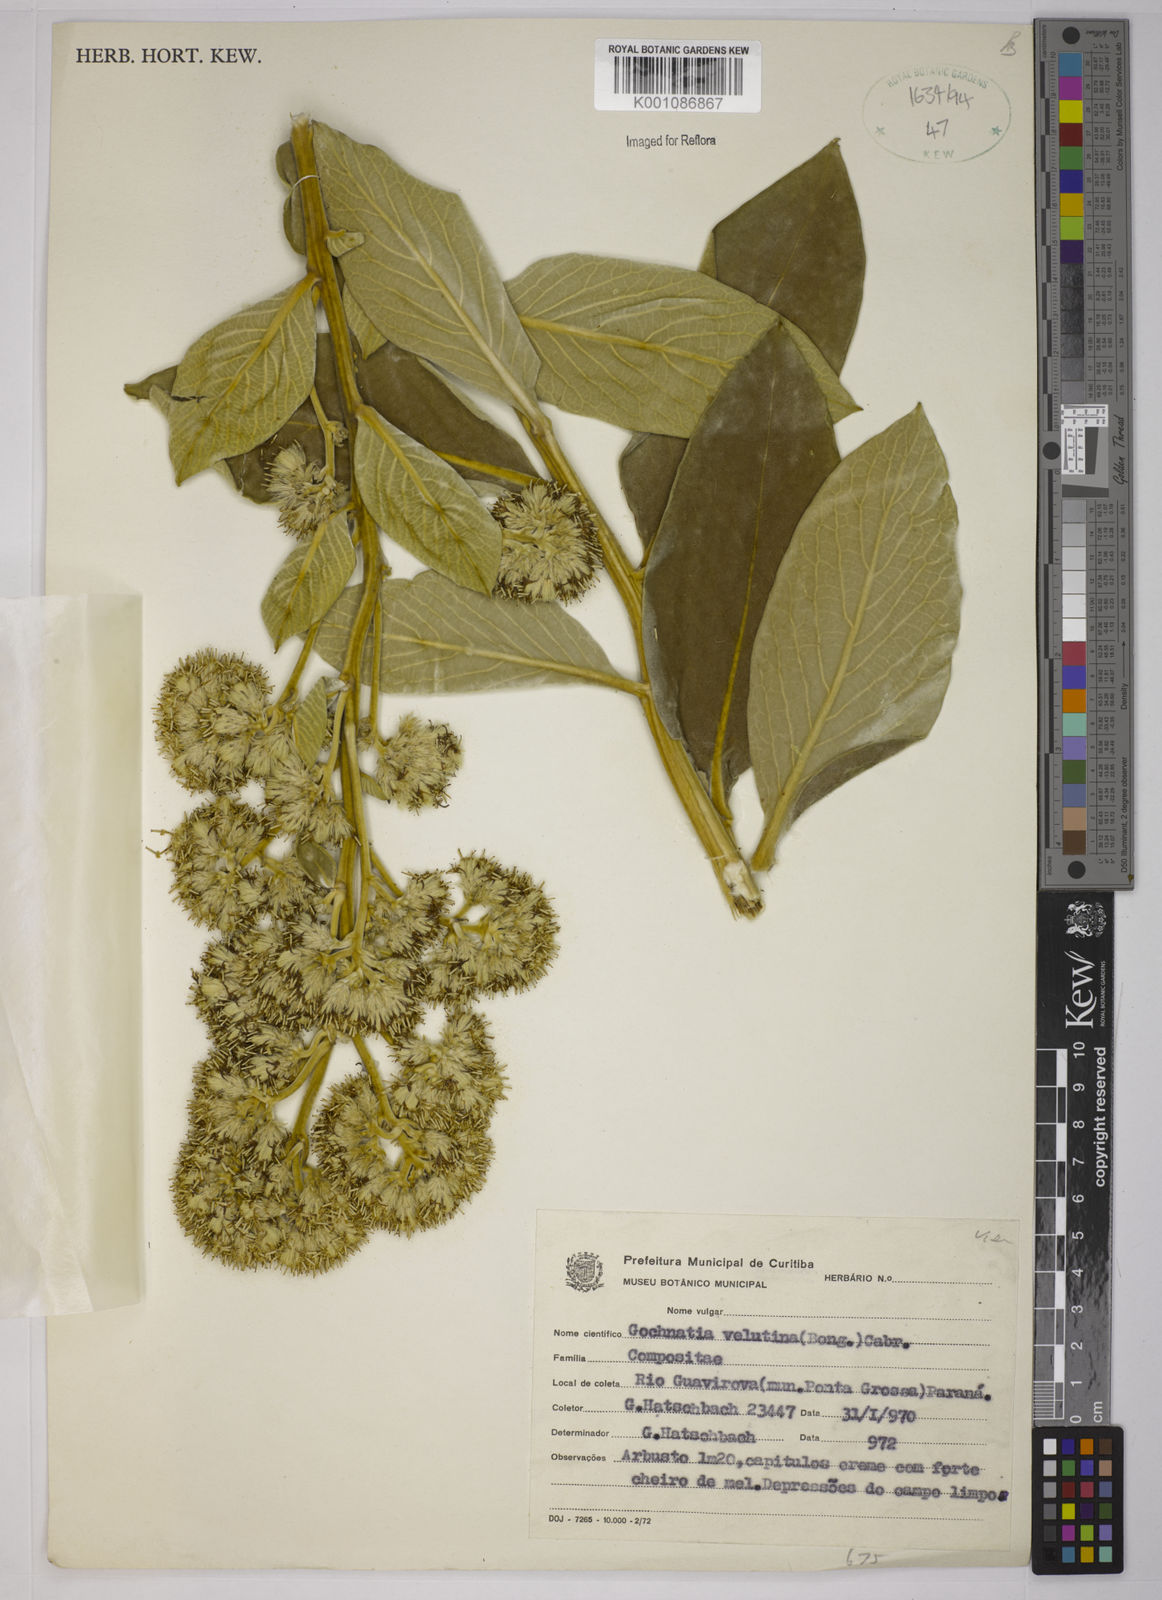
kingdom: Plantae
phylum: Tracheophyta
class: Magnoliopsida
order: Asterales
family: Asteraceae
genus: Moquiniastrum
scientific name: Moquiniastrum velutinum
